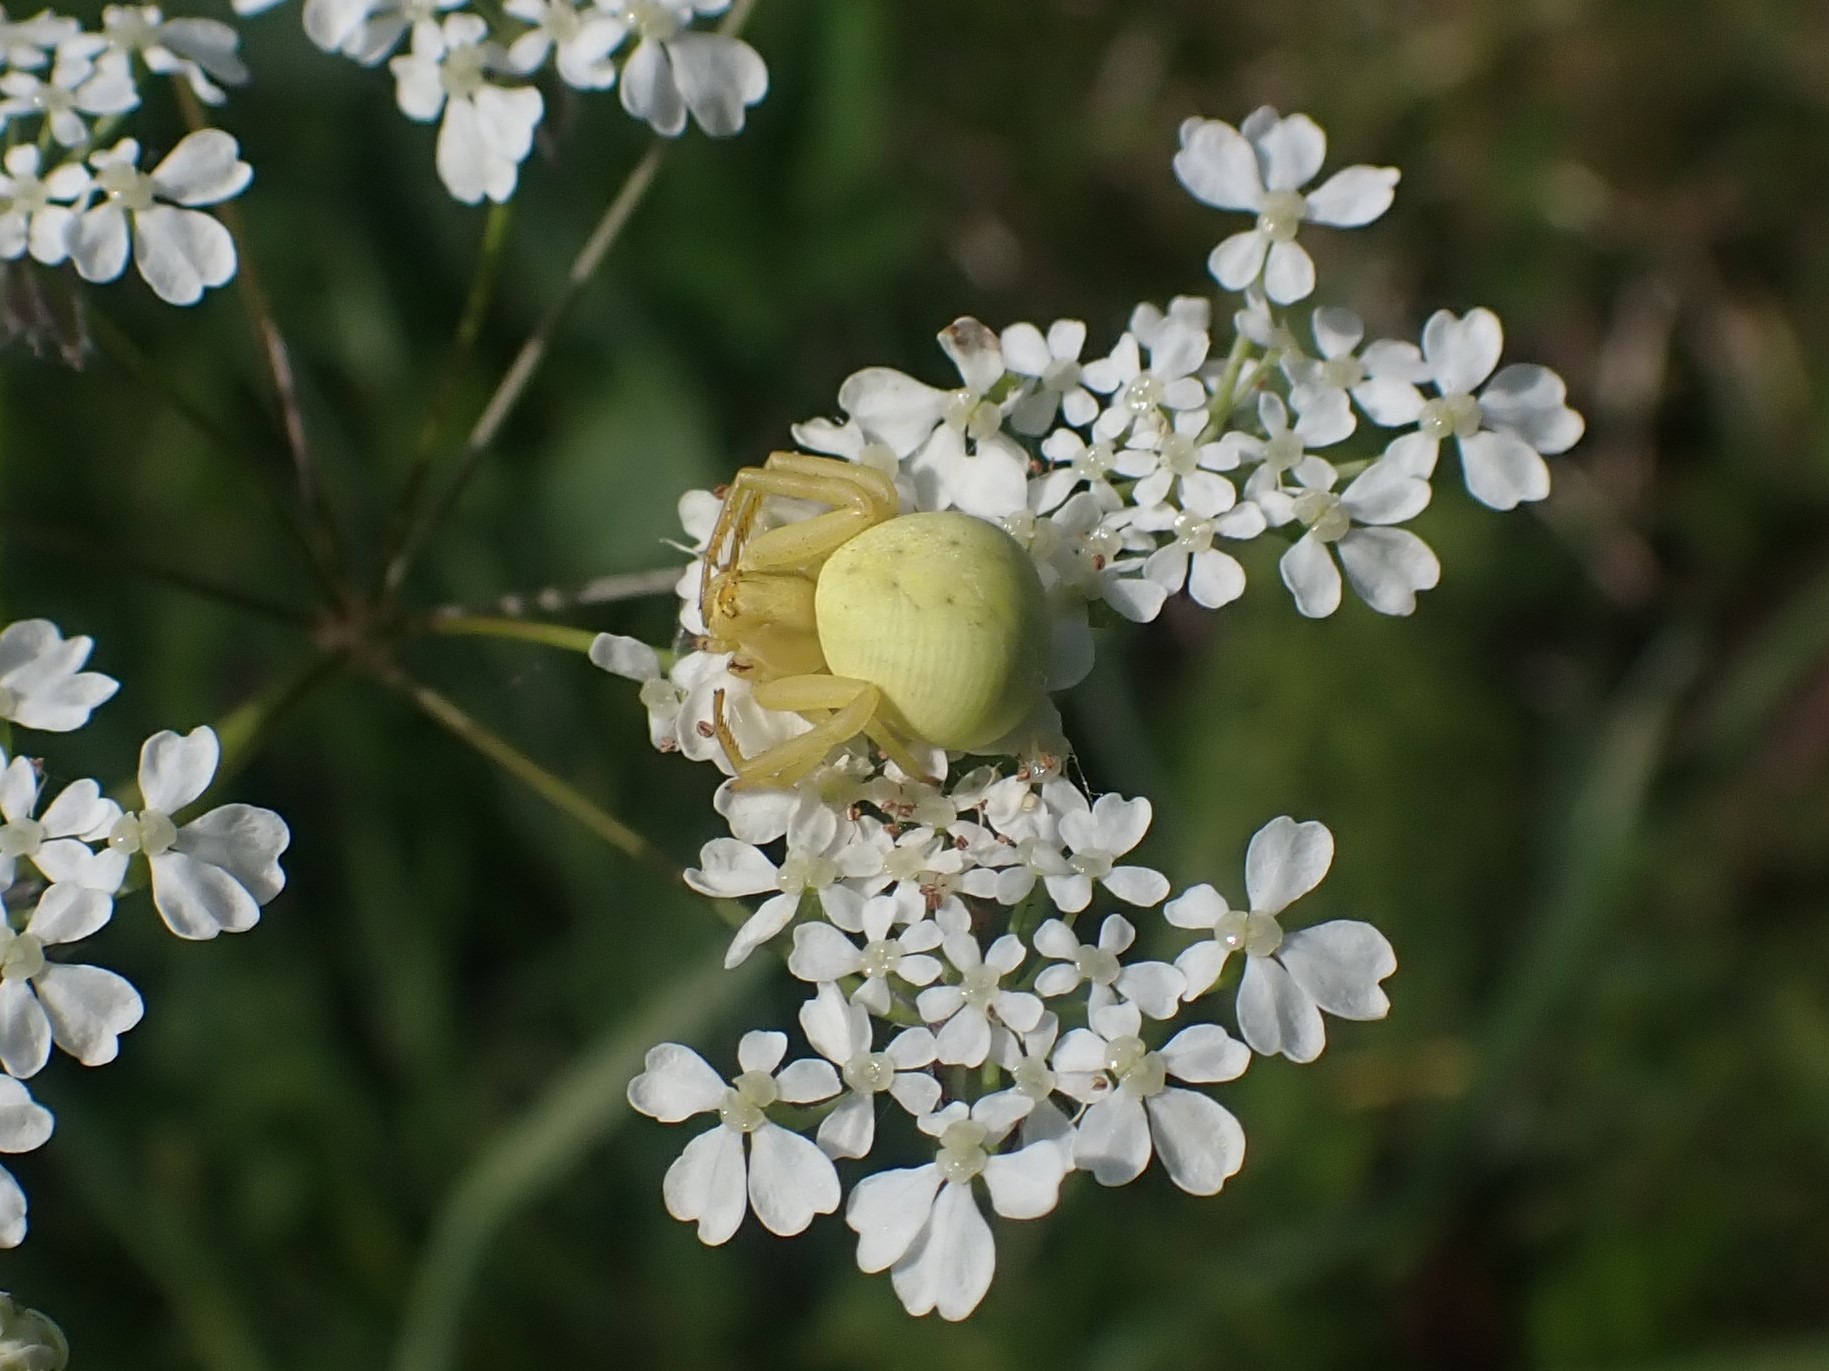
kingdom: Animalia
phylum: Arthropoda
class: Arachnida
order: Araneae
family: Thomisidae
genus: Misumena
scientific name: Misumena vatia
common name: Kamæleonedderkop
